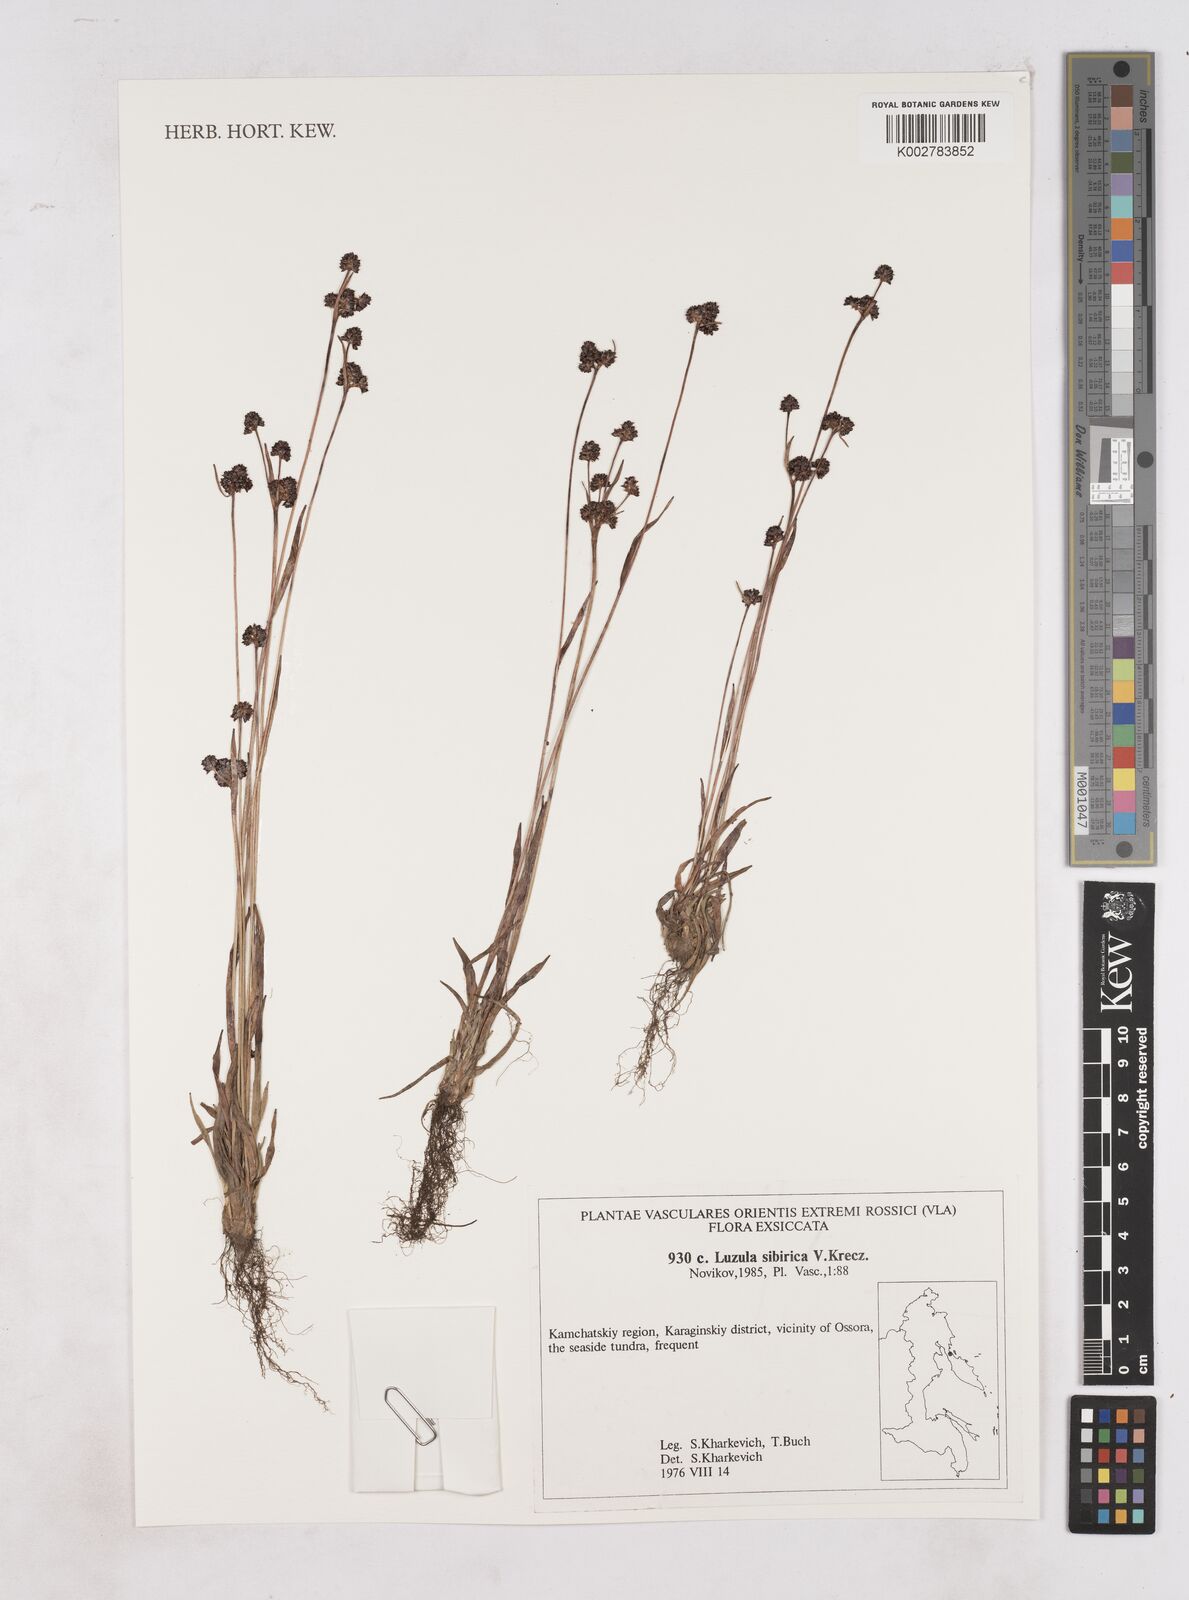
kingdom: Plantae
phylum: Tracheophyta
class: Liliopsida
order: Poales
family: Juncaceae
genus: Luzula
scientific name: Luzula multiflora
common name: Heath wood-rush
